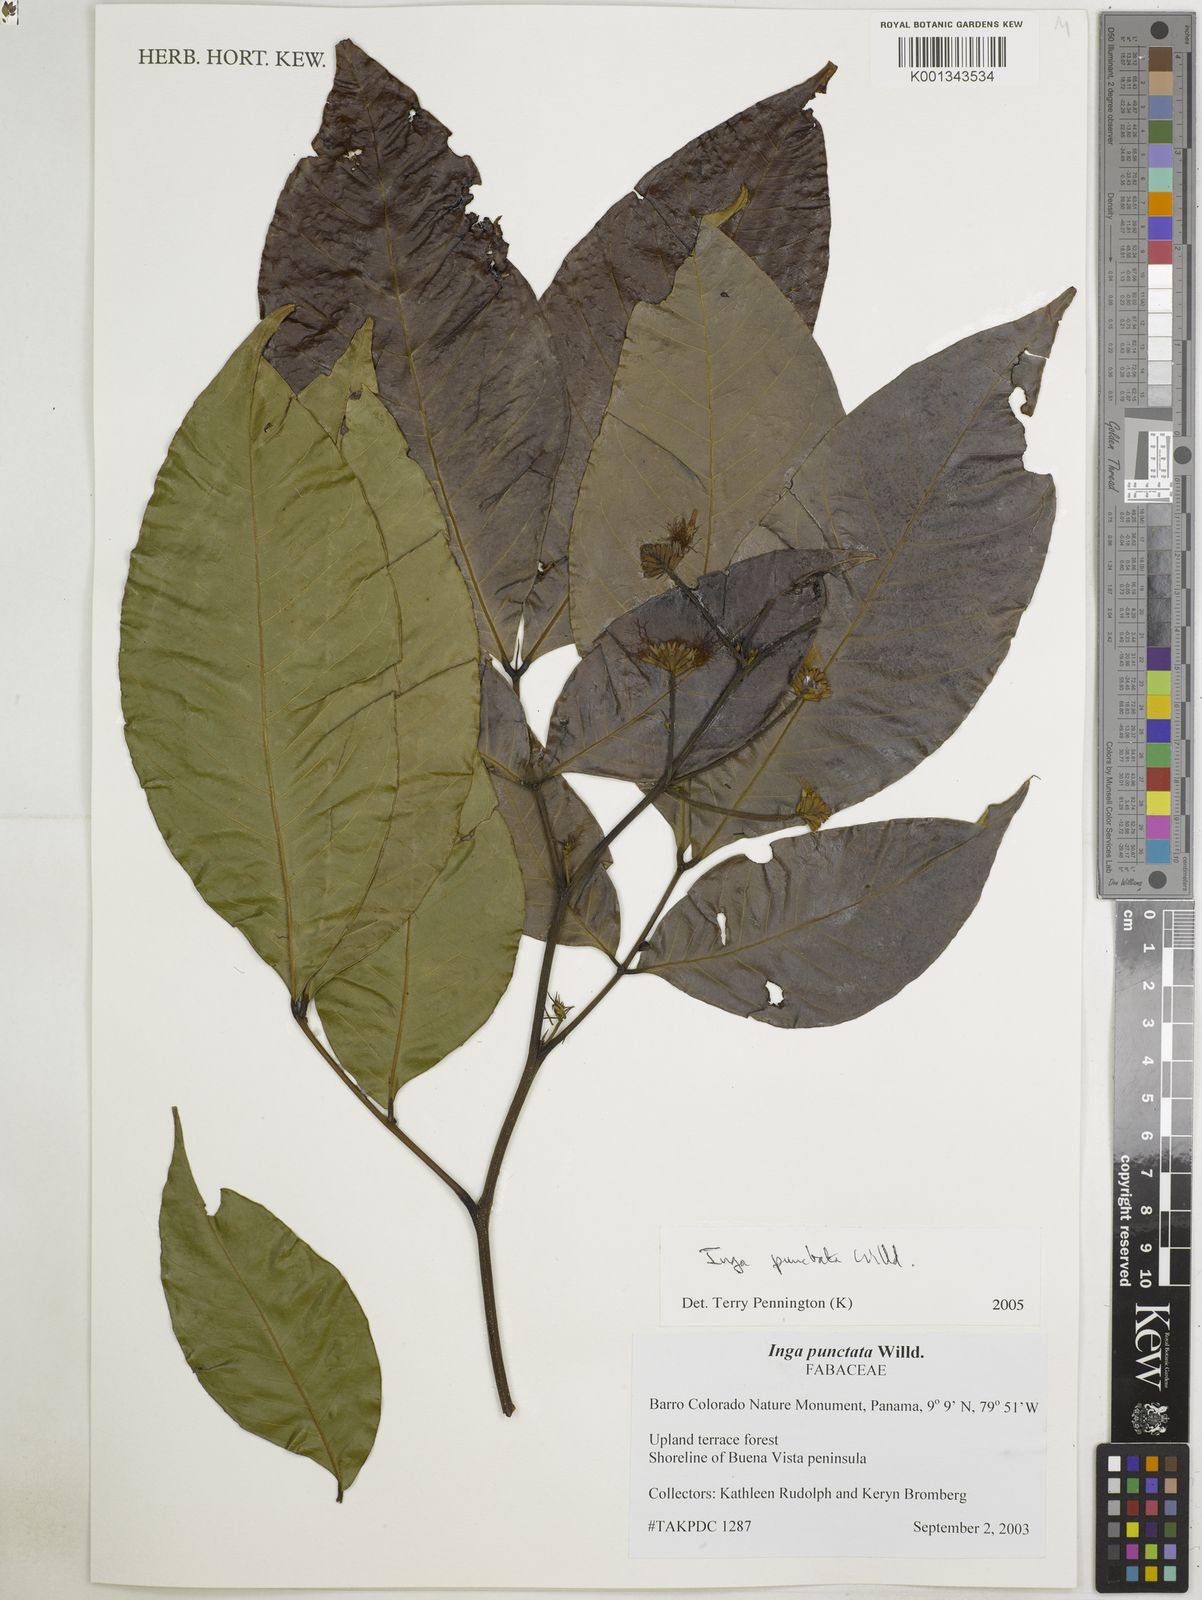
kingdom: Plantae
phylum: Tracheophyta
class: Magnoliopsida
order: Fabales
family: Fabaceae
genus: Inga
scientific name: Inga punctata
